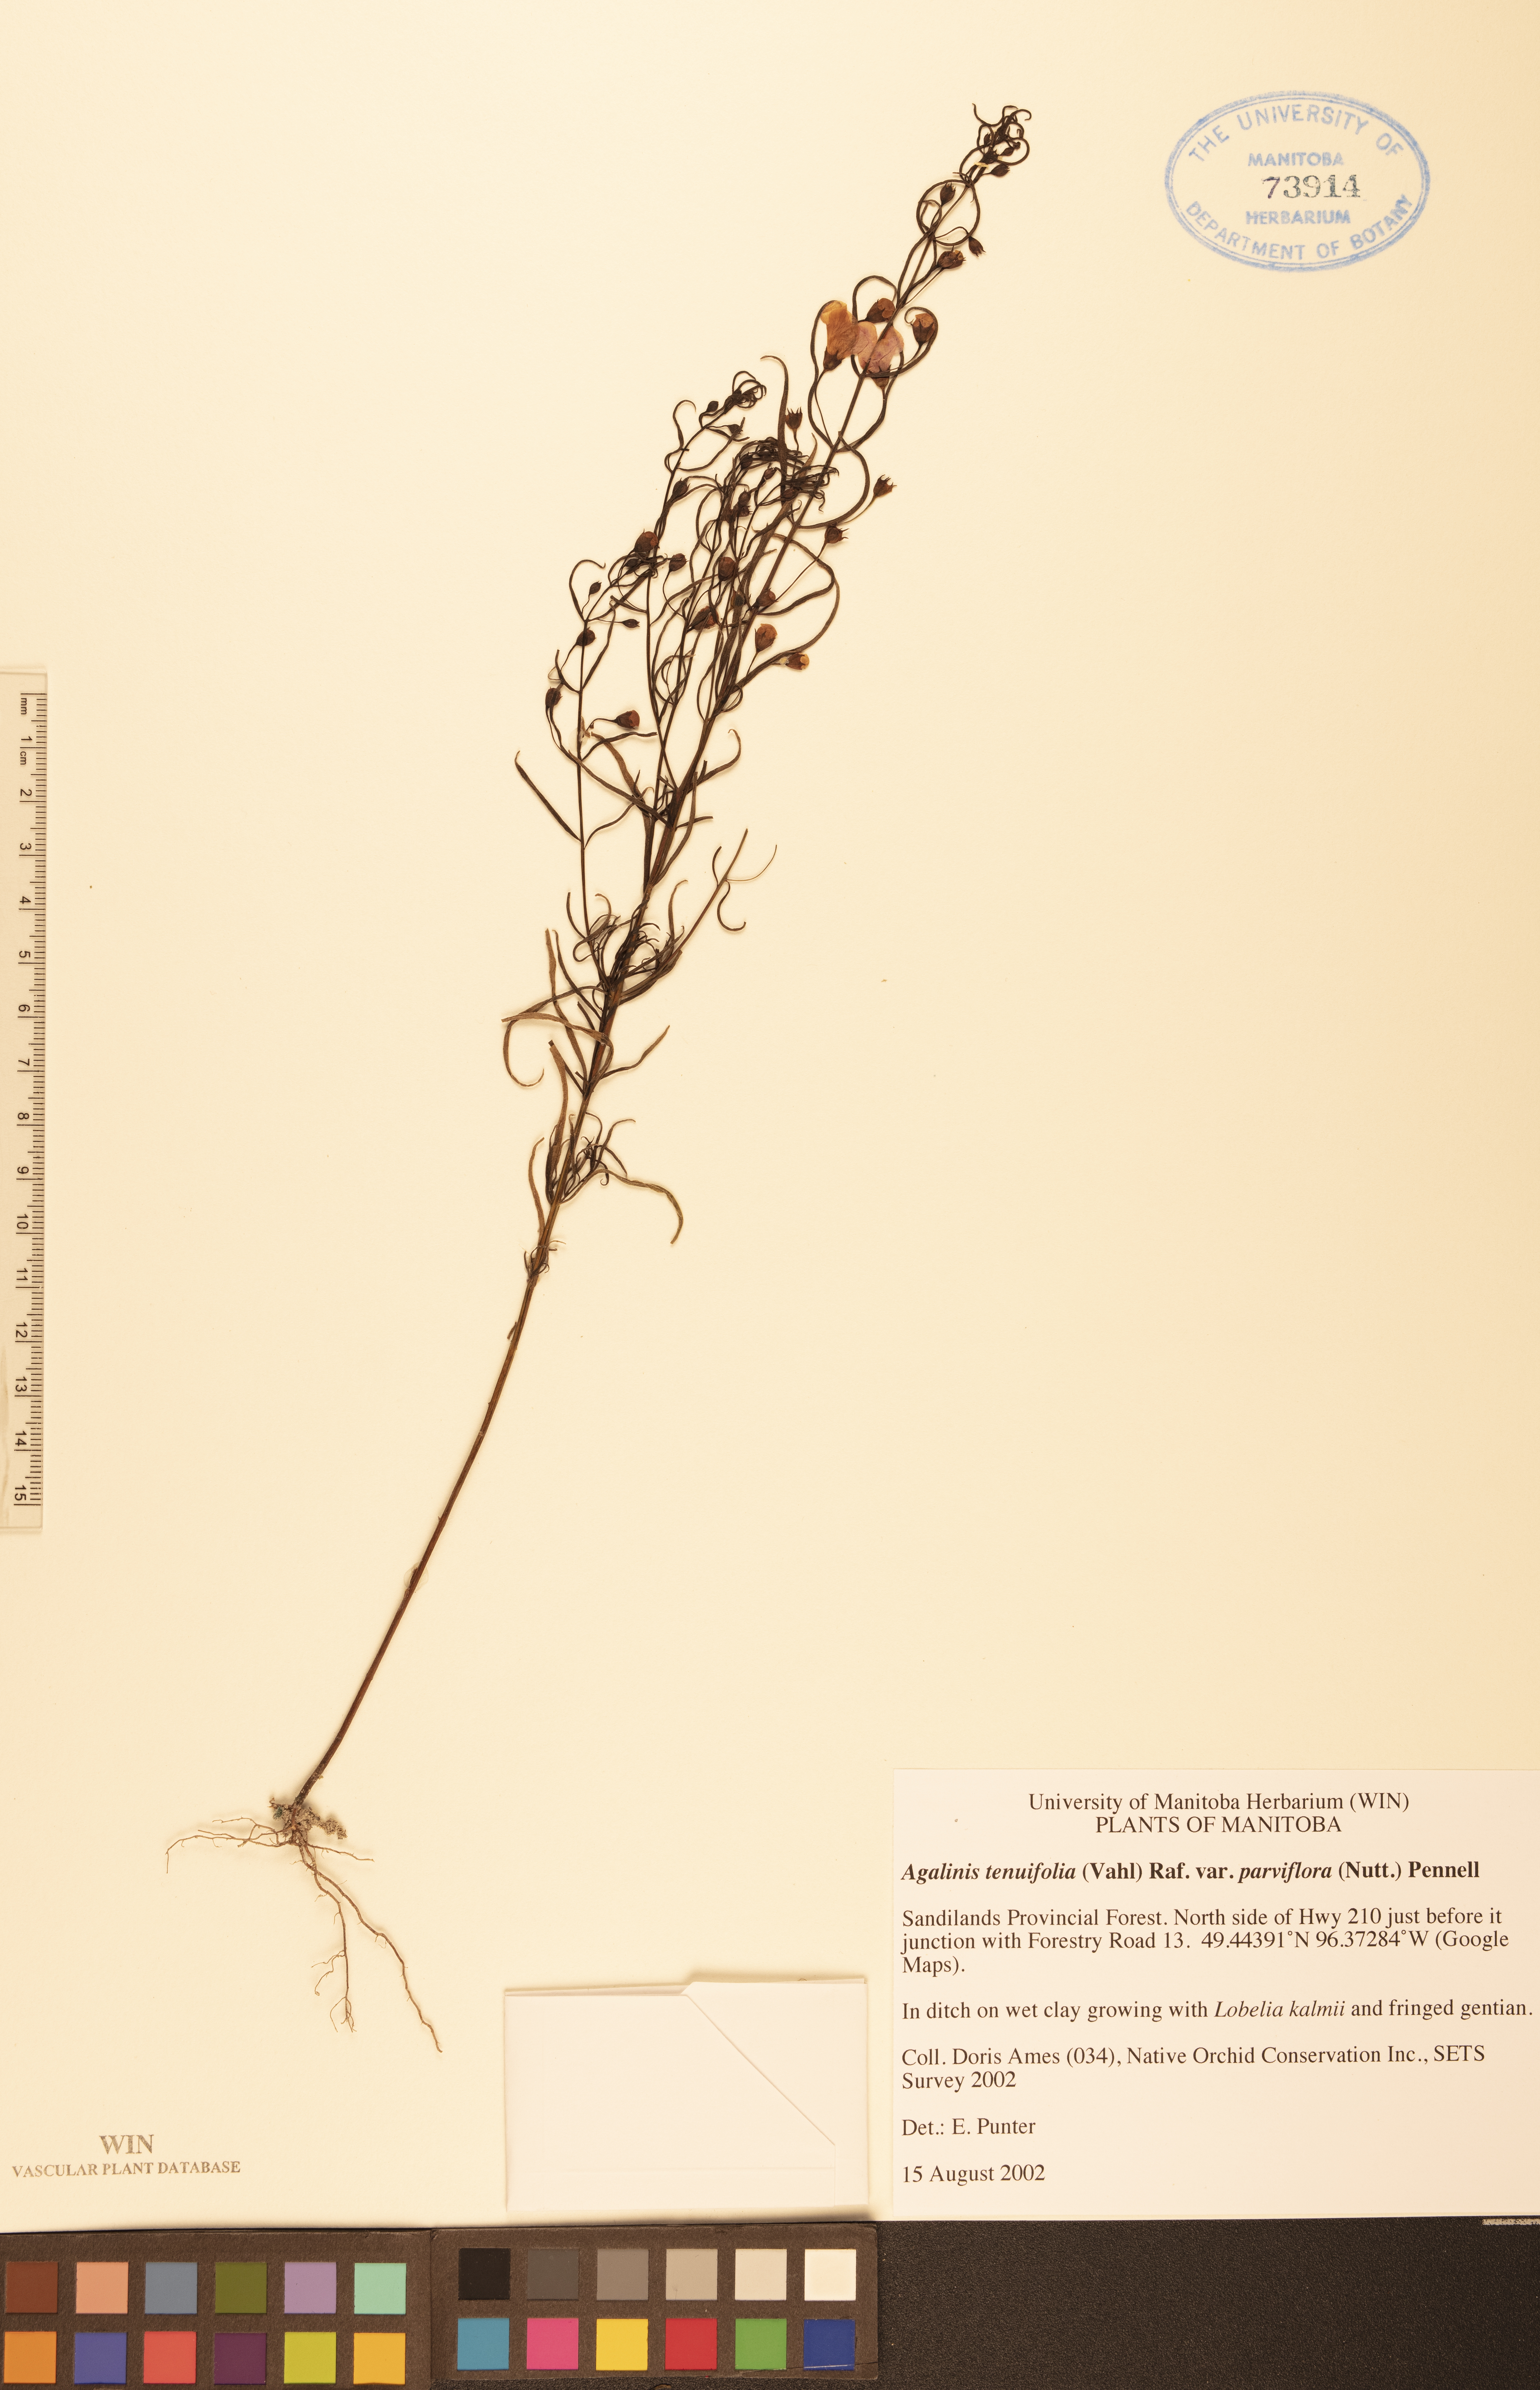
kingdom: Plantae
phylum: Tracheophyta
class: Magnoliopsida
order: Lamiales
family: Orobanchaceae
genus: Agalinis
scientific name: Agalinis tenuifolia
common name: Slender agalinis
